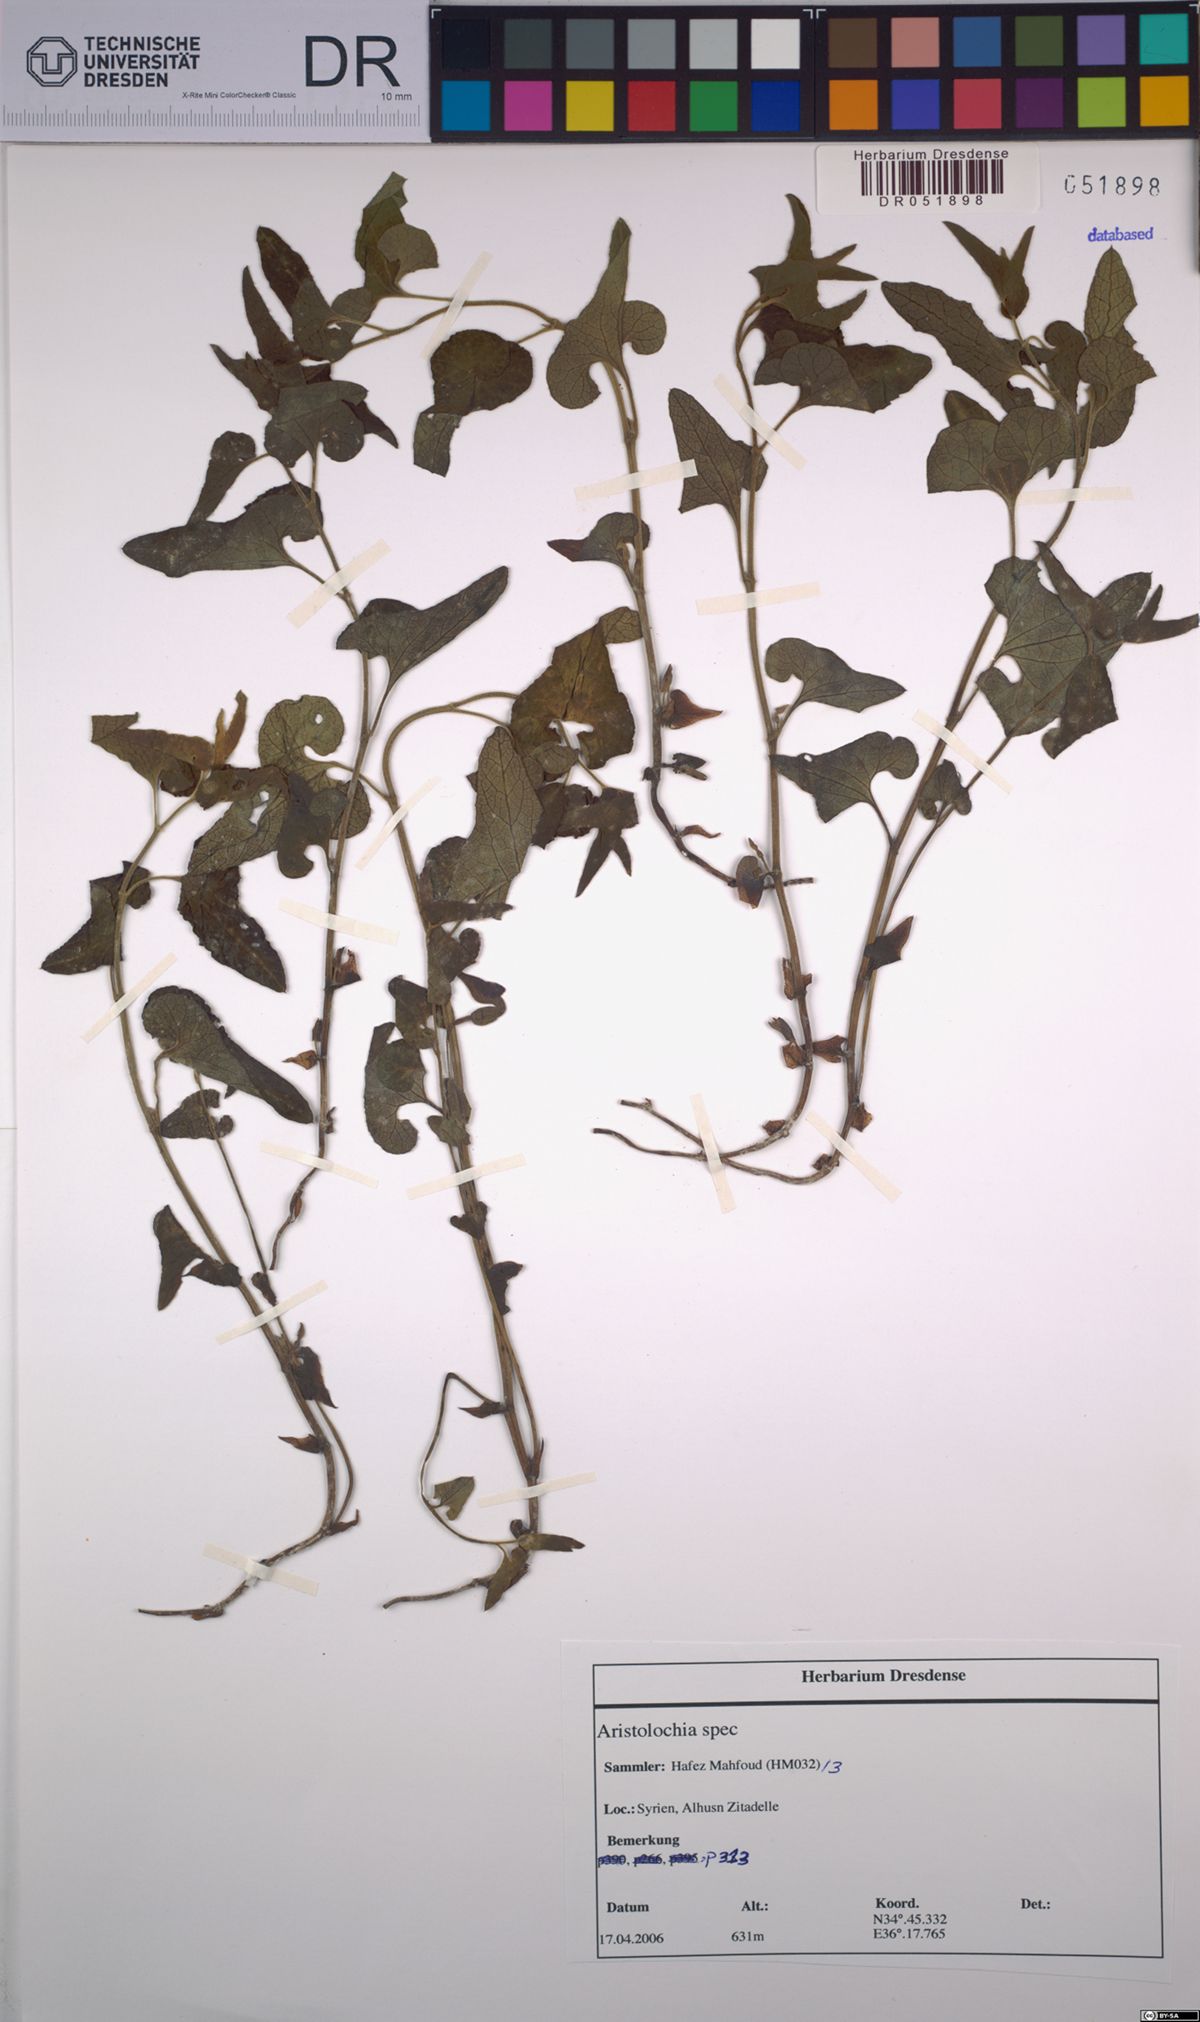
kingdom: Plantae
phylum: Tracheophyta
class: Magnoliopsida
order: Piperales
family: Aristolochiaceae
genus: Aristolochia
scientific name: Aristolochia
